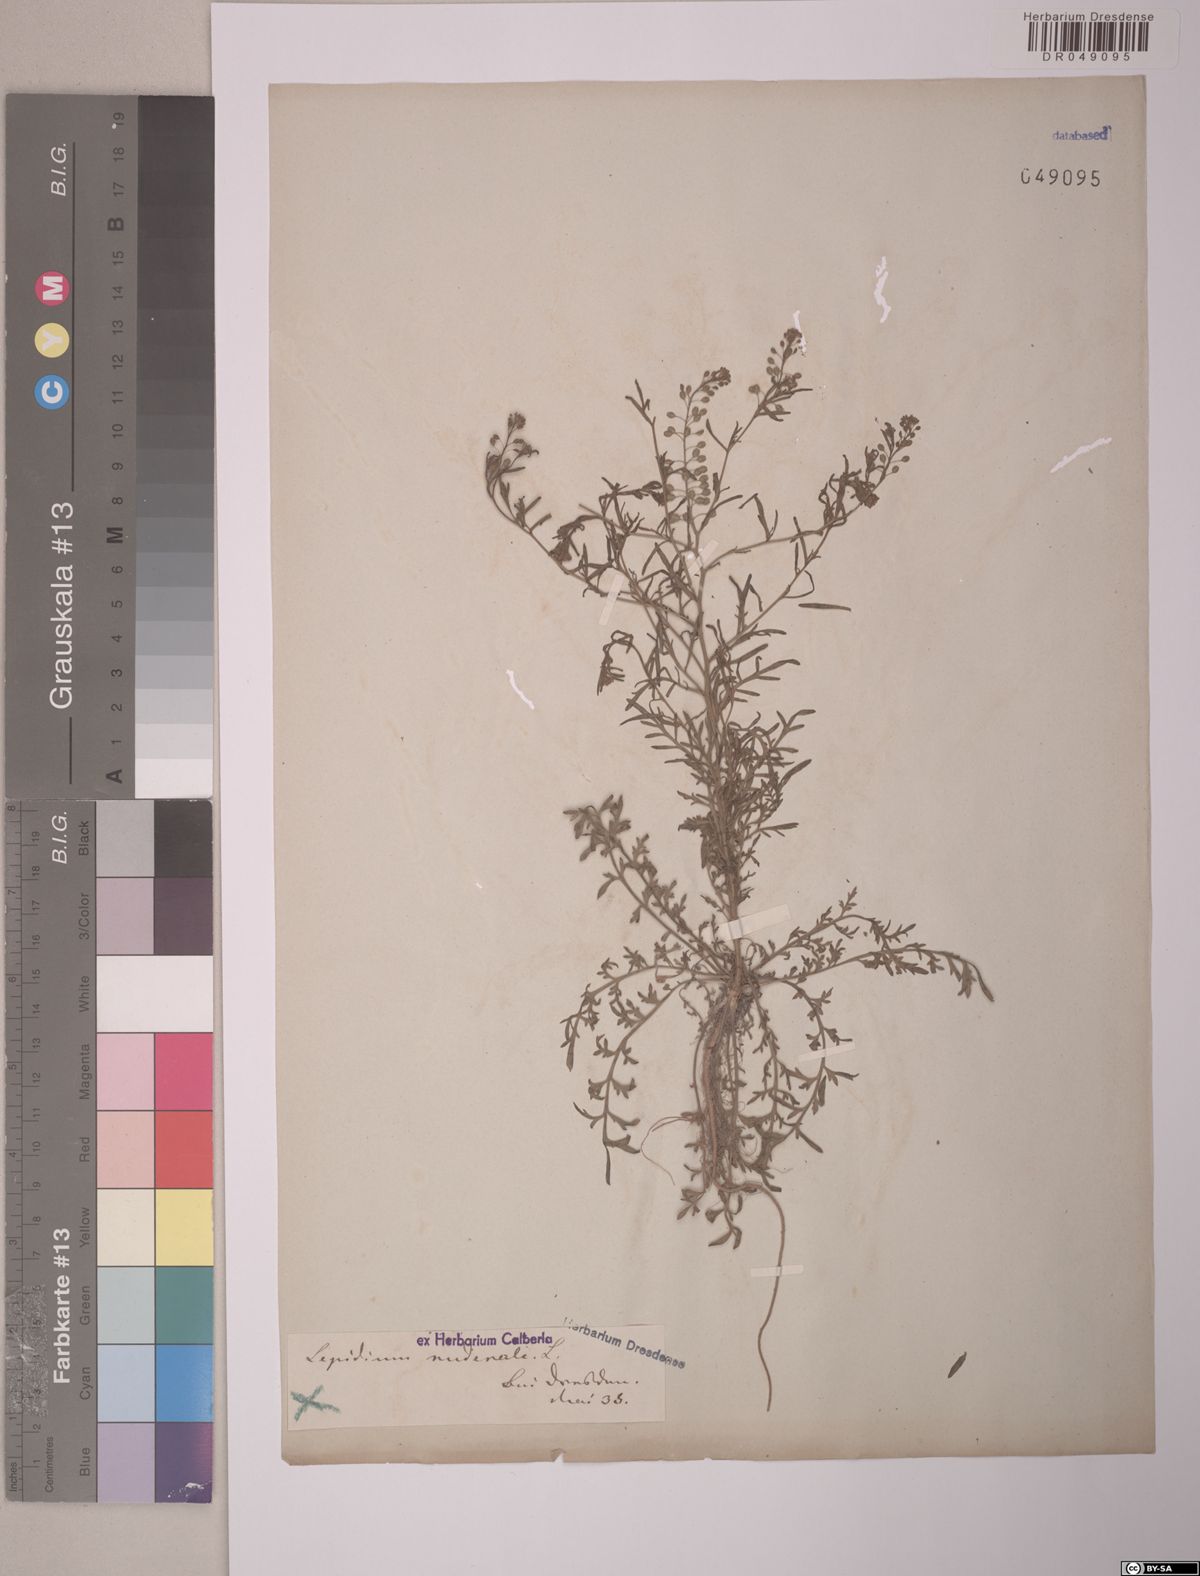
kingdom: Plantae
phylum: Tracheophyta
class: Magnoliopsida
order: Brassicales
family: Brassicaceae
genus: Lepidium
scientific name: Lepidium ruderale
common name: Narrow-leaved pepperwort
